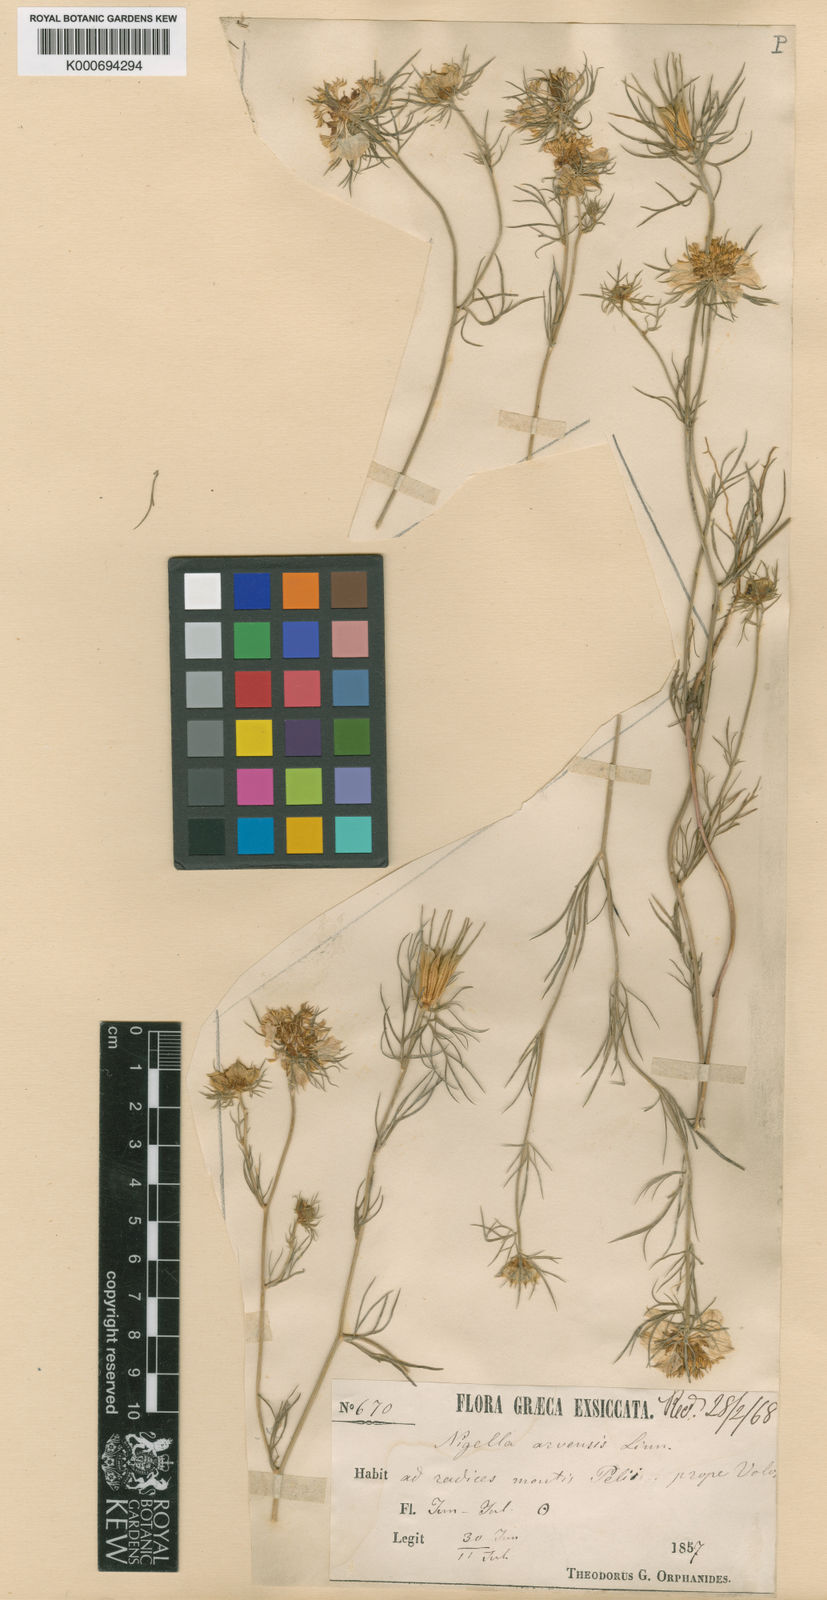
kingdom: Plantae
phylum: Tracheophyta
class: Magnoliopsida
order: Ranunculales
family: Ranunculaceae
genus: Nigella
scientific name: Nigella arvensis
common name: Wild fennel-flower
